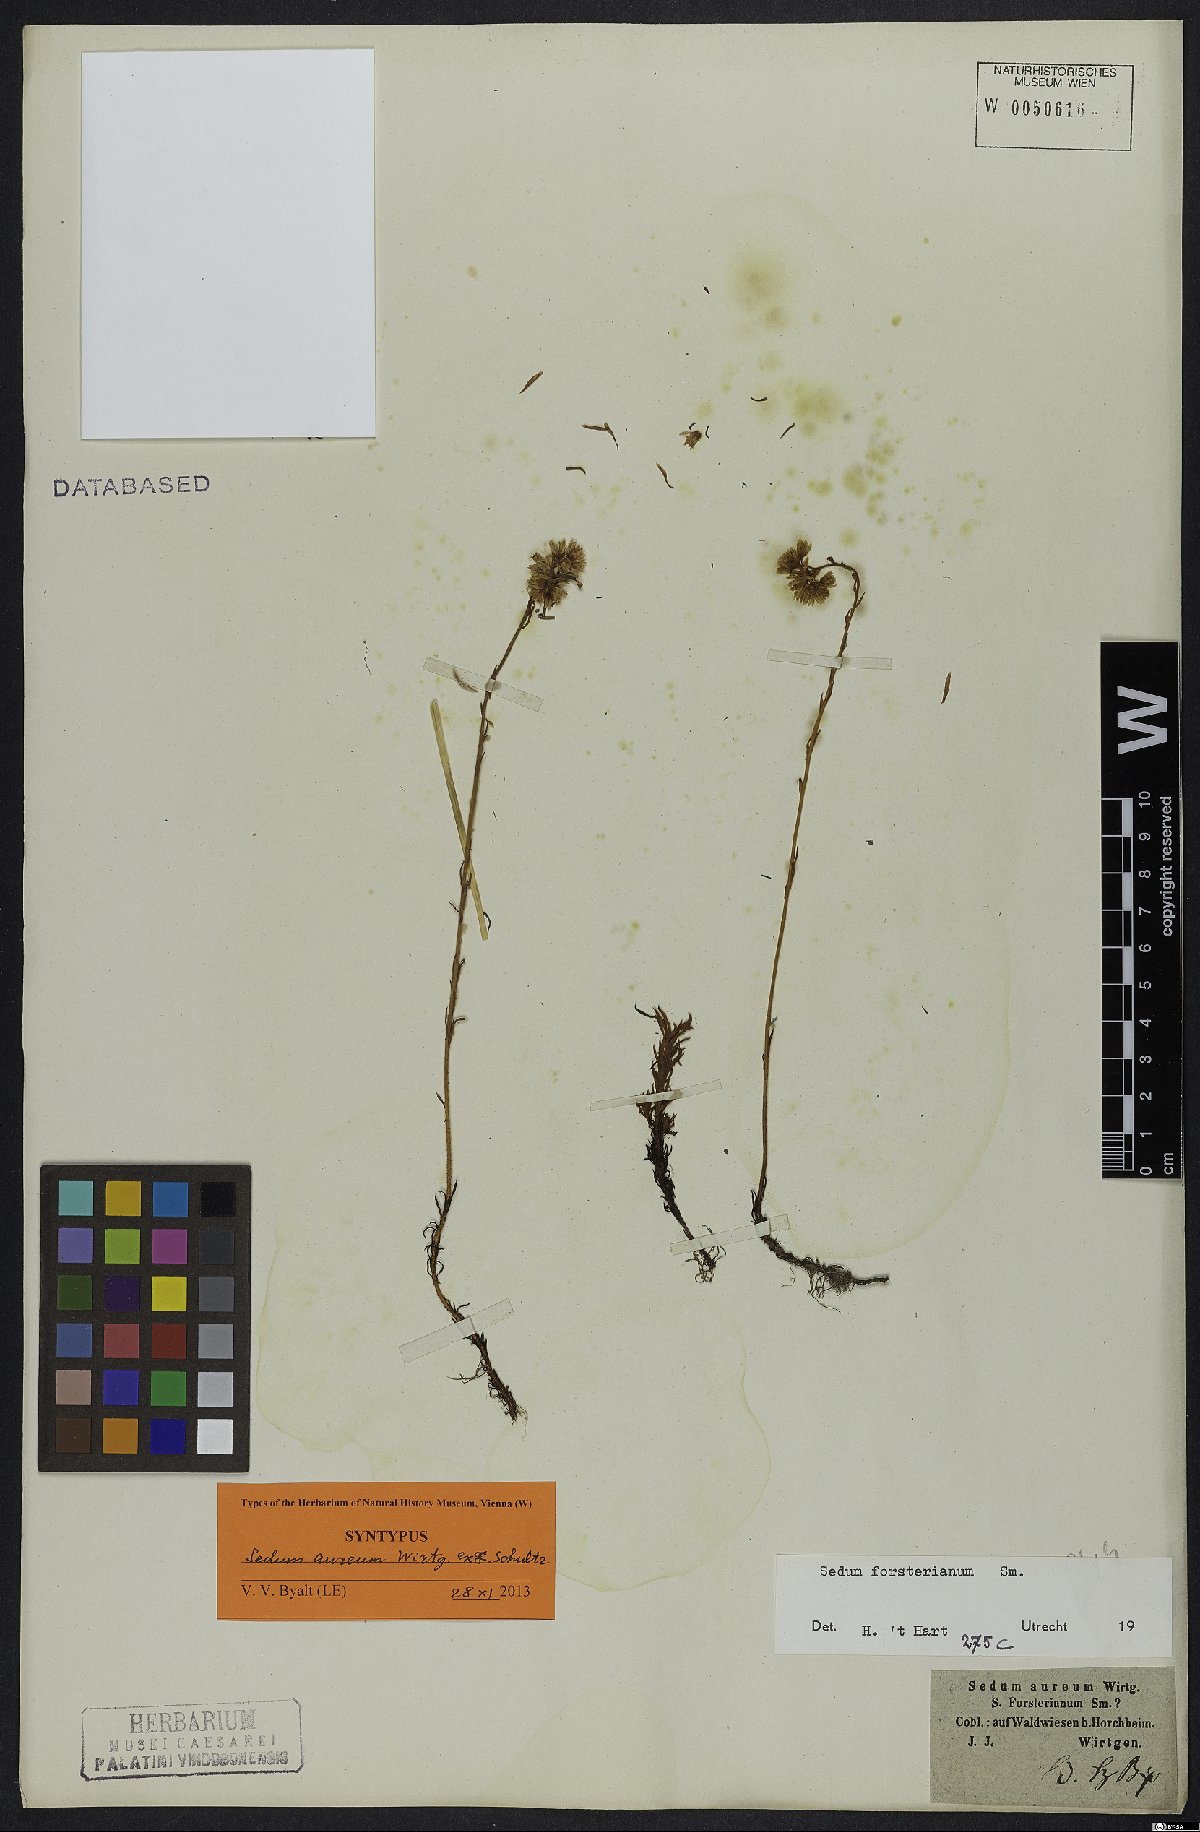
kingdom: Plantae
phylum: Tracheophyta
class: Magnoliopsida
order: Saxifragales
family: Crassulaceae
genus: Petrosedum
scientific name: Petrosedum forsterianum
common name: Forster's stonecrop
